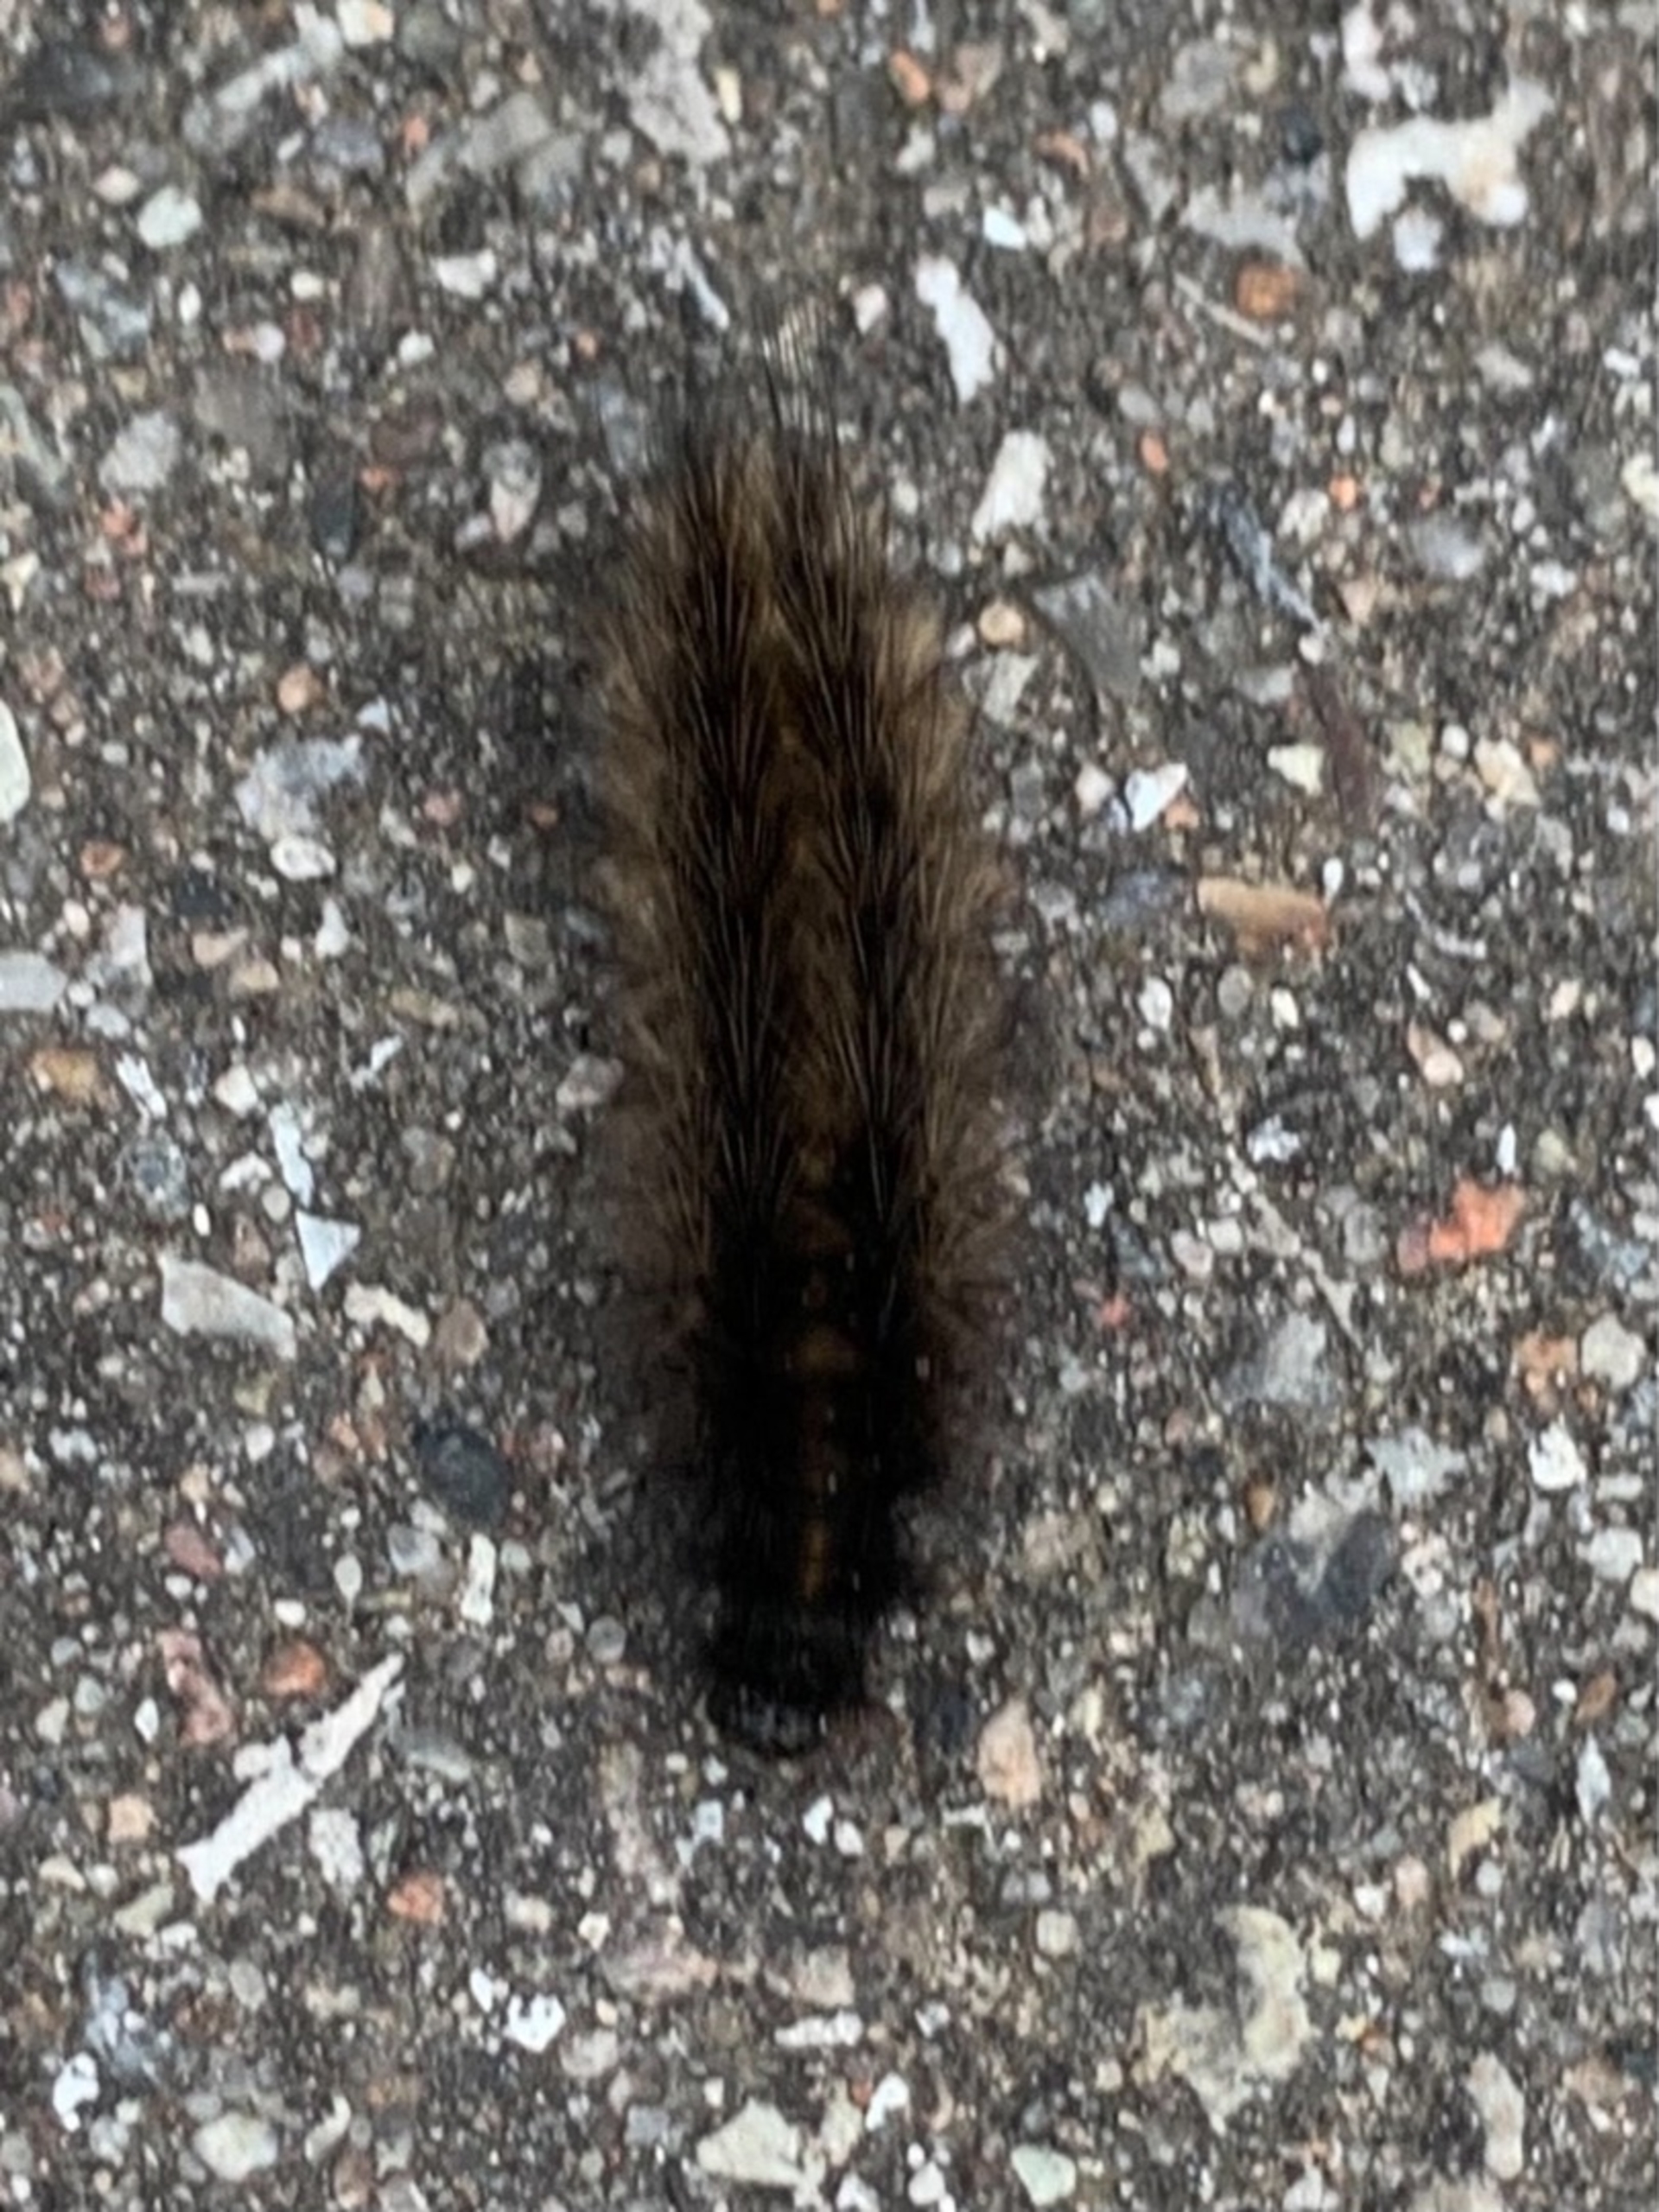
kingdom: Animalia
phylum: Arthropoda
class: Insecta
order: Lepidoptera
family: Erebidae
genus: Phragmatobia
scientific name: Phragmatobia fuliginosa
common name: Kanelbjørn
